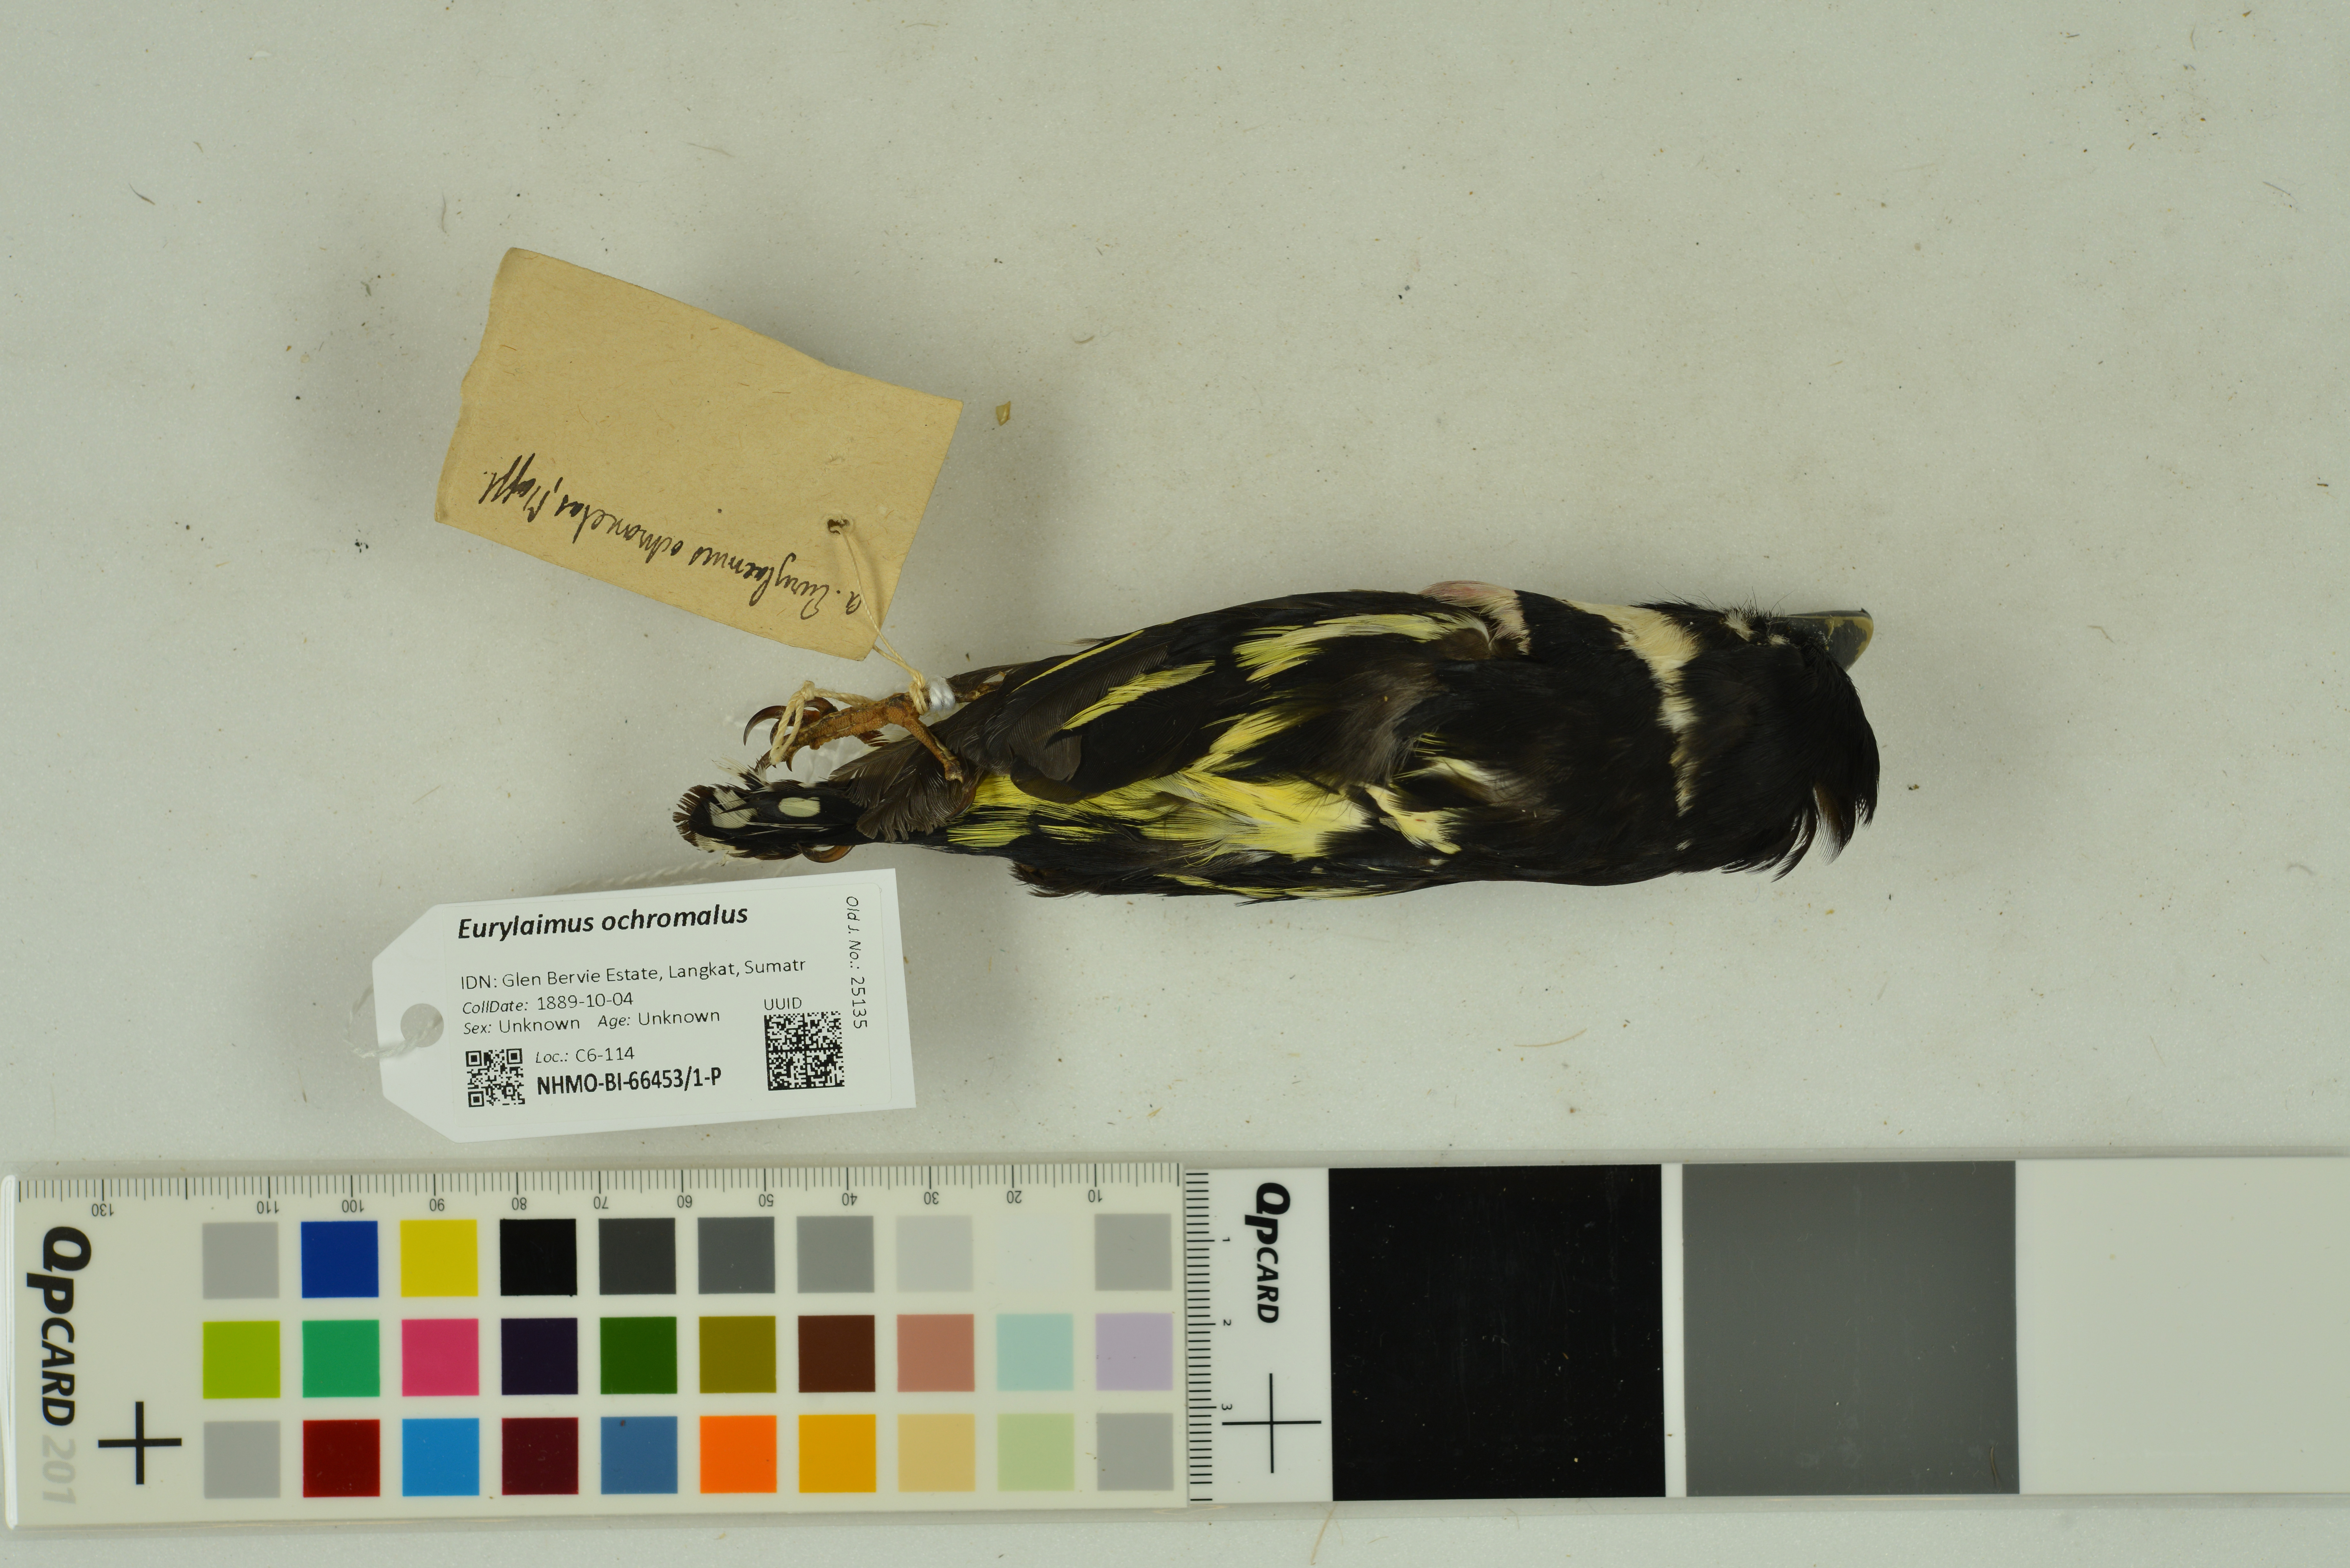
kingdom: Animalia
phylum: Chordata
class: Aves
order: Passeriformes
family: Eurylaimidae
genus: Eurylaimus
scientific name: Eurylaimus ochromalus
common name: Black-and-yellow broadbill
